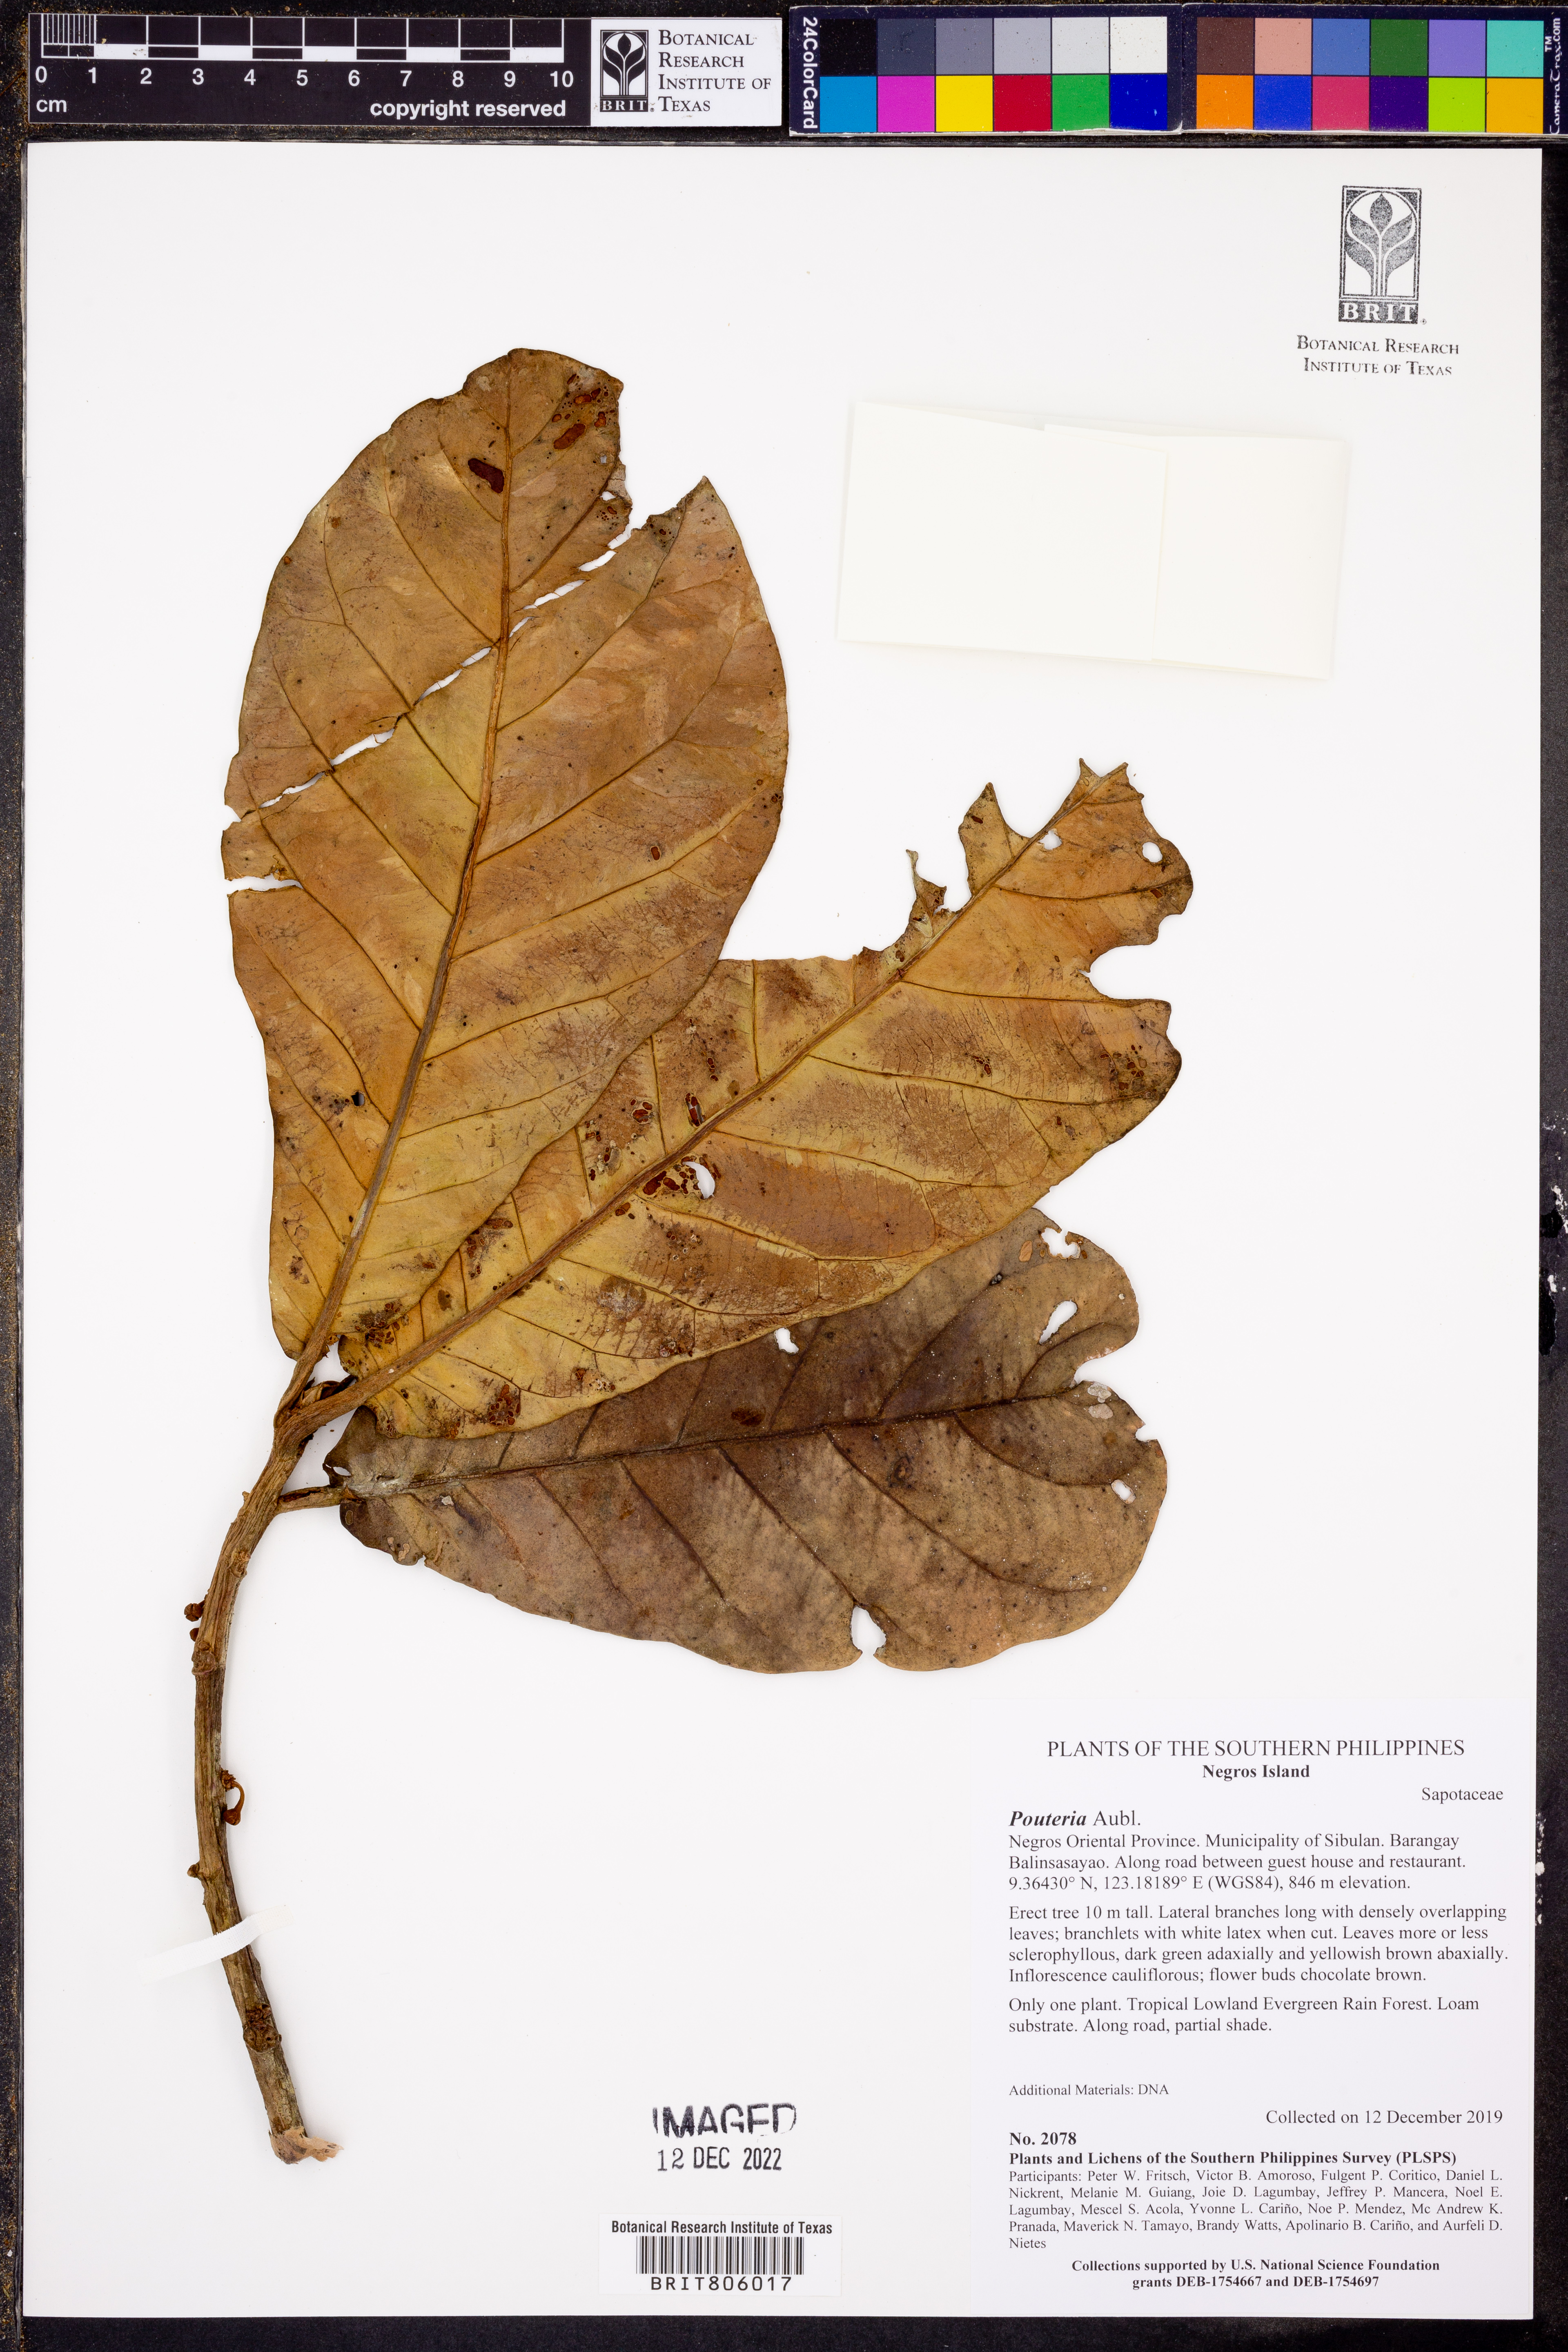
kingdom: Plantae
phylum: Tracheophyta
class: Magnoliopsida
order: Ericales
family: Sapotaceae
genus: Pouteria
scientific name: Pouteria
